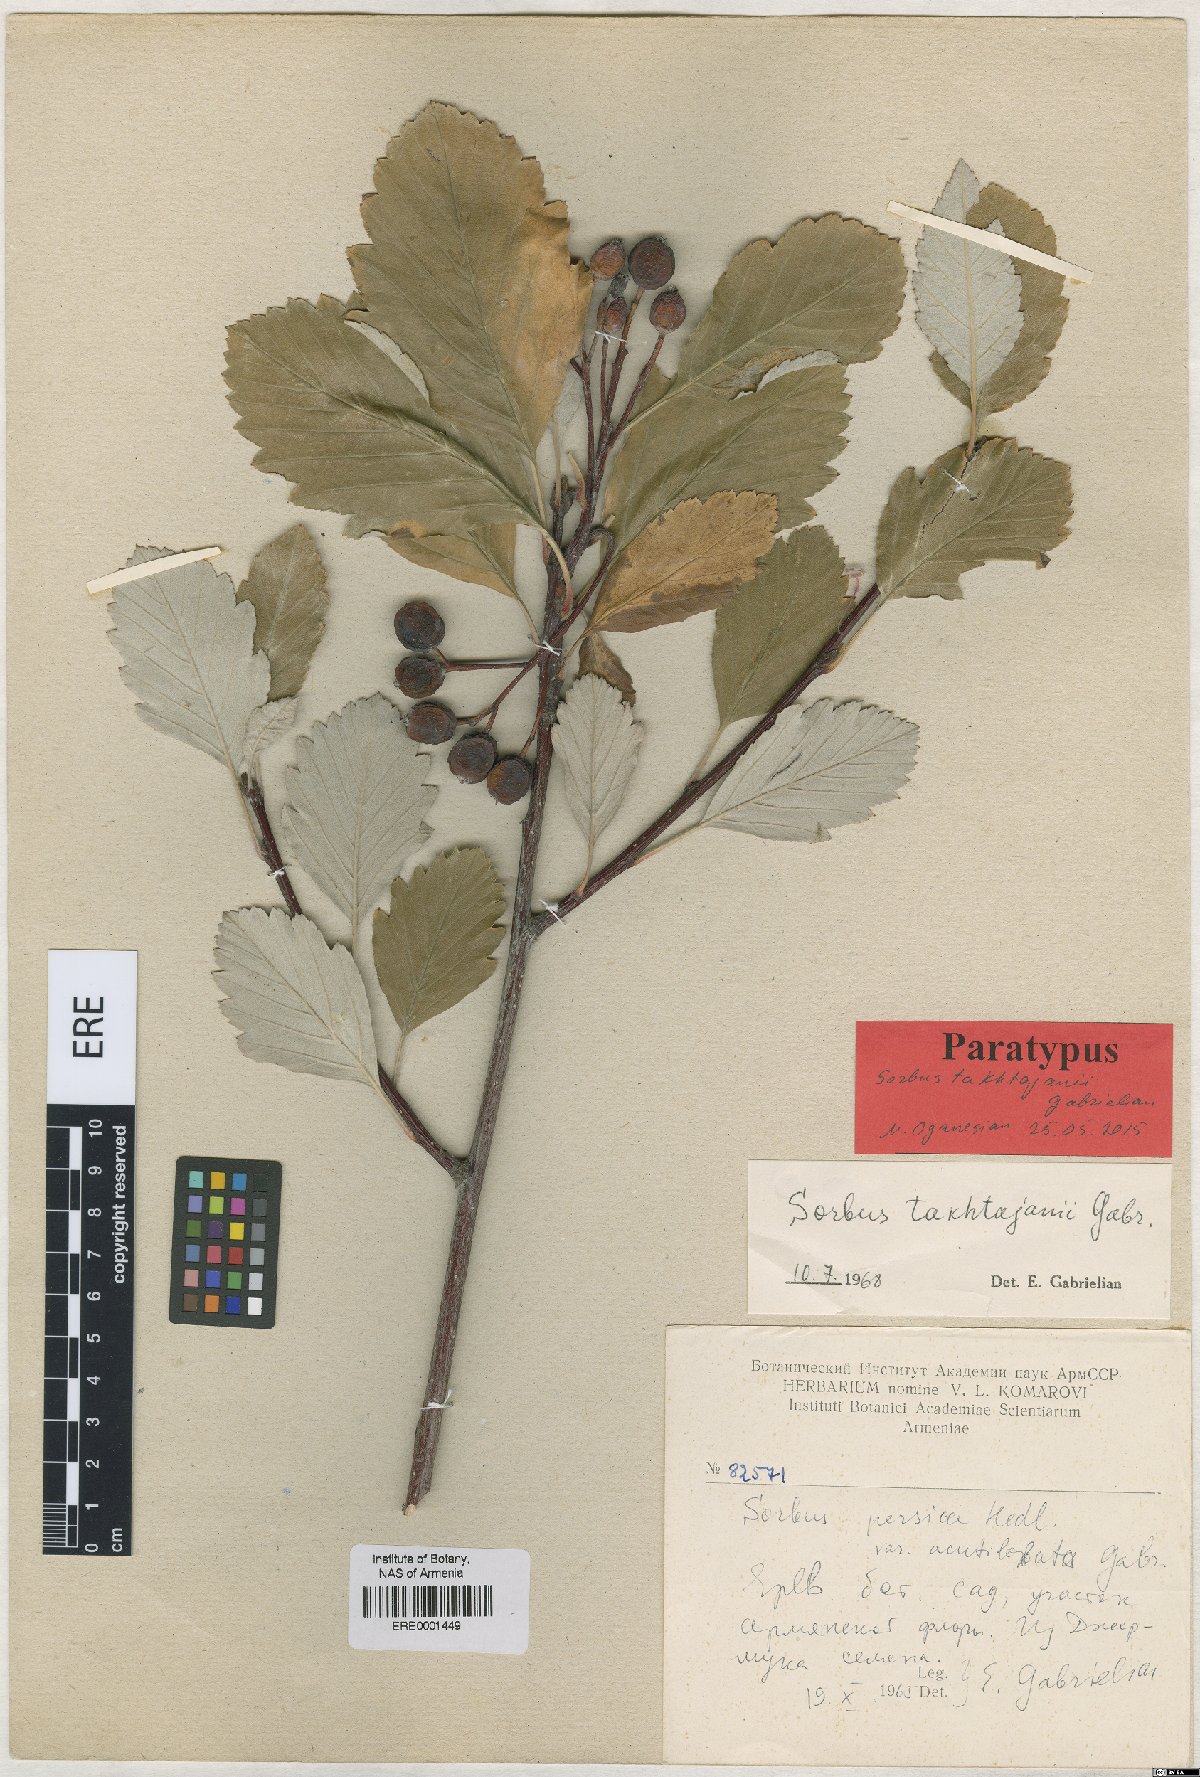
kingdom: Plantae
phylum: Tracheophyta
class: Magnoliopsida
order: Rosales
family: Rosaceae
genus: Hedlundia
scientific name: Hedlundia takhtajanii
